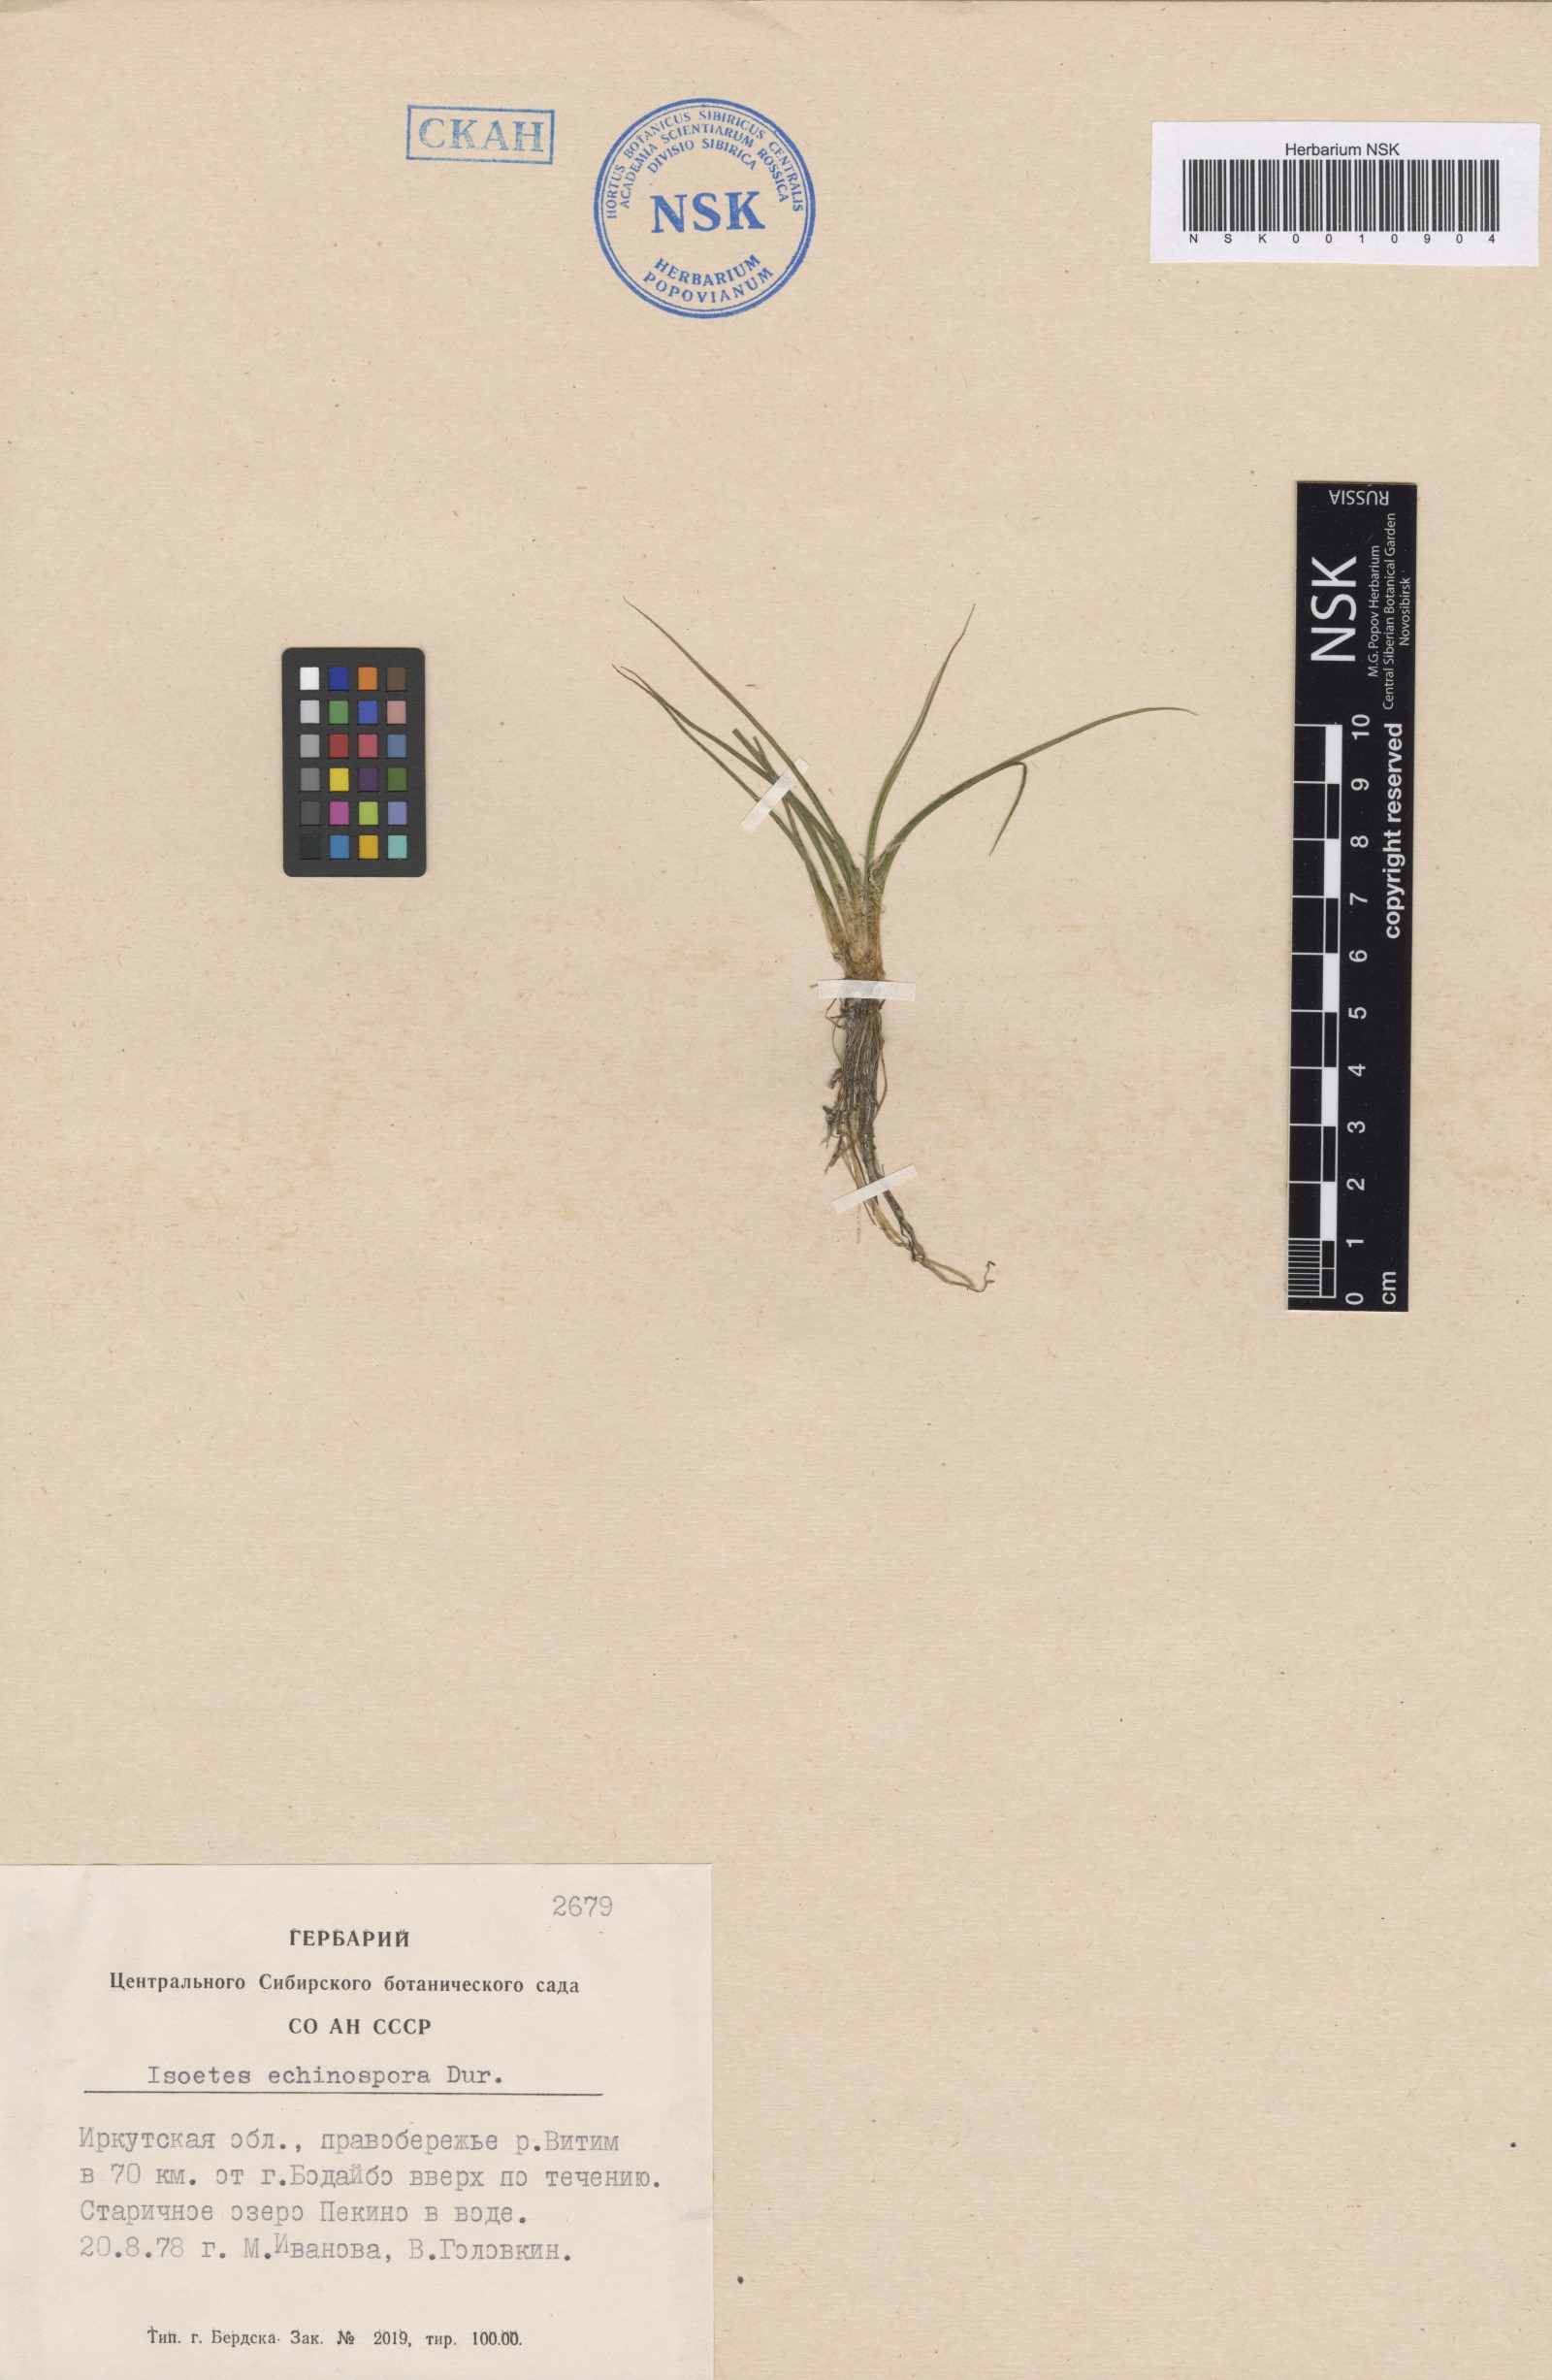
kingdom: Plantae
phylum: Tracheophyta
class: Lycopodiopsida
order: Isoetales
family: Isoetaceae
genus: Isoetes
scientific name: Isoetes echinospora
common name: Spring quillwort
